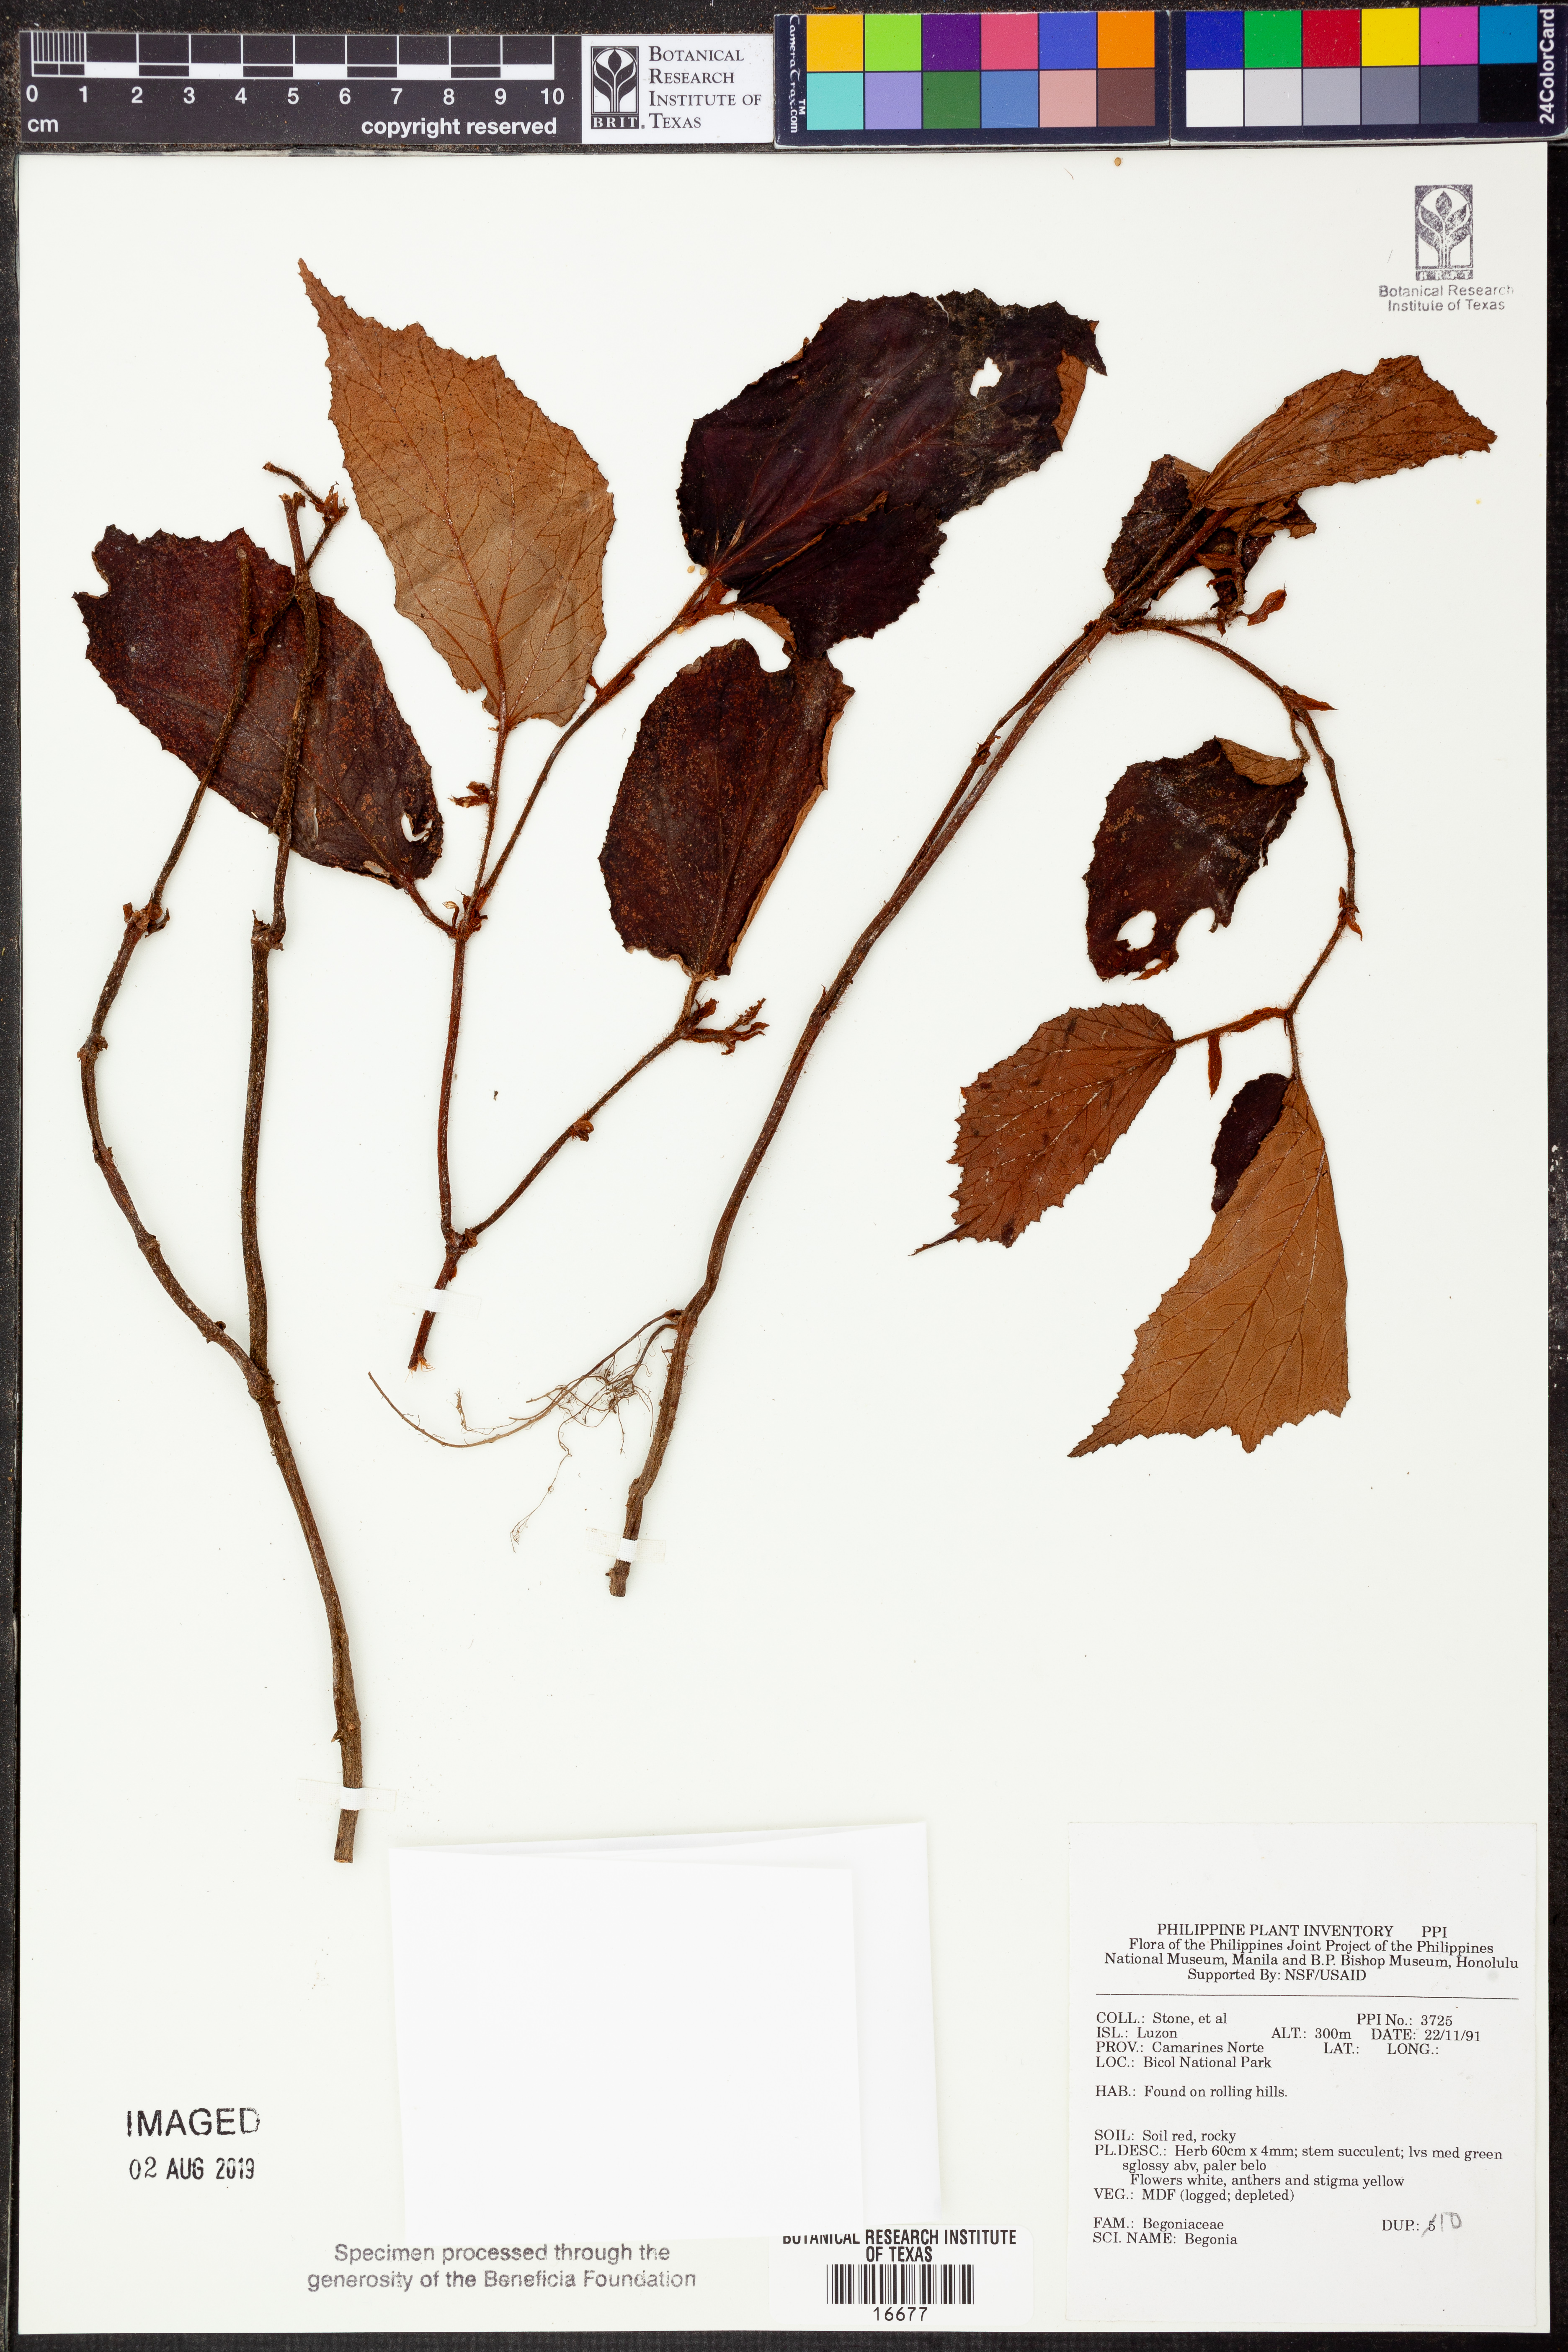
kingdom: Plantae
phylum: Tracheophyta
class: Magnoliopsida
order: Cucurbitales
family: Begoniaceae
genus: Begonia
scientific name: Begonia
